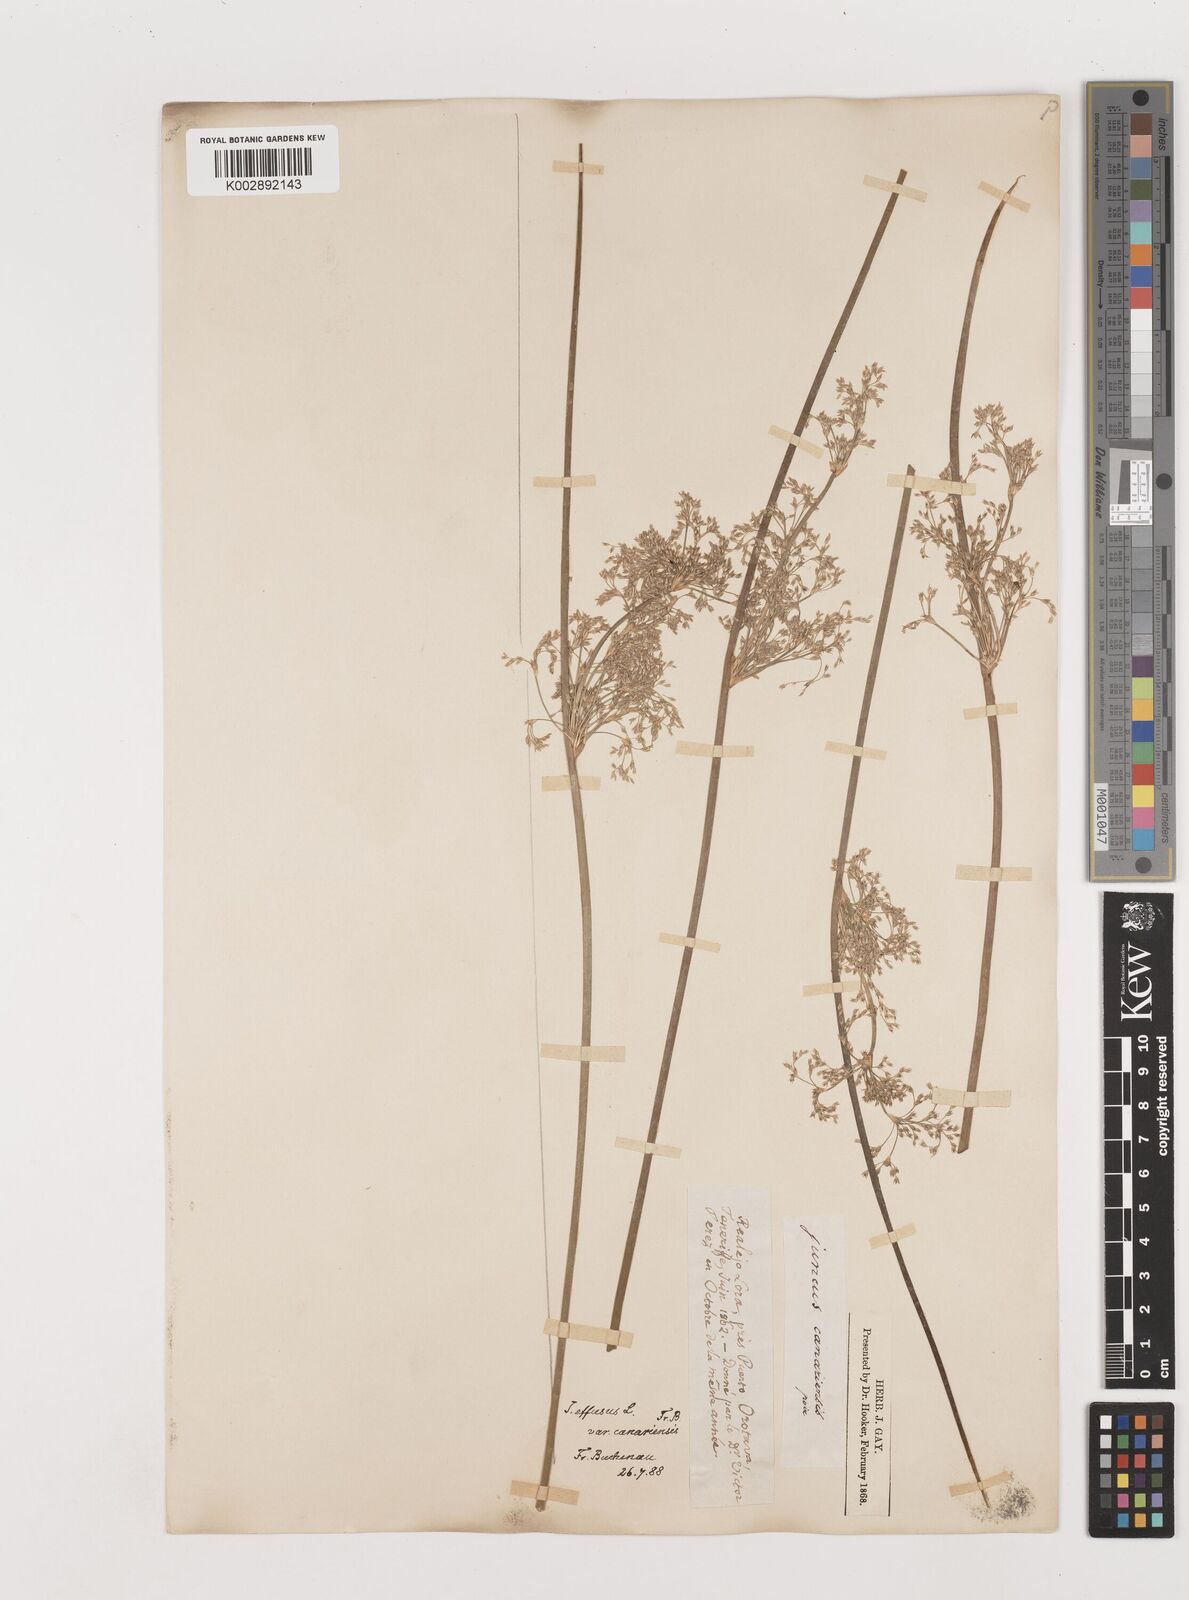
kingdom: Plantae
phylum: Tracheophyta
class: Liliopsida
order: Poales
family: Juncaceae
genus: Juncus
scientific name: Juncus effusus
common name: Soft rush
